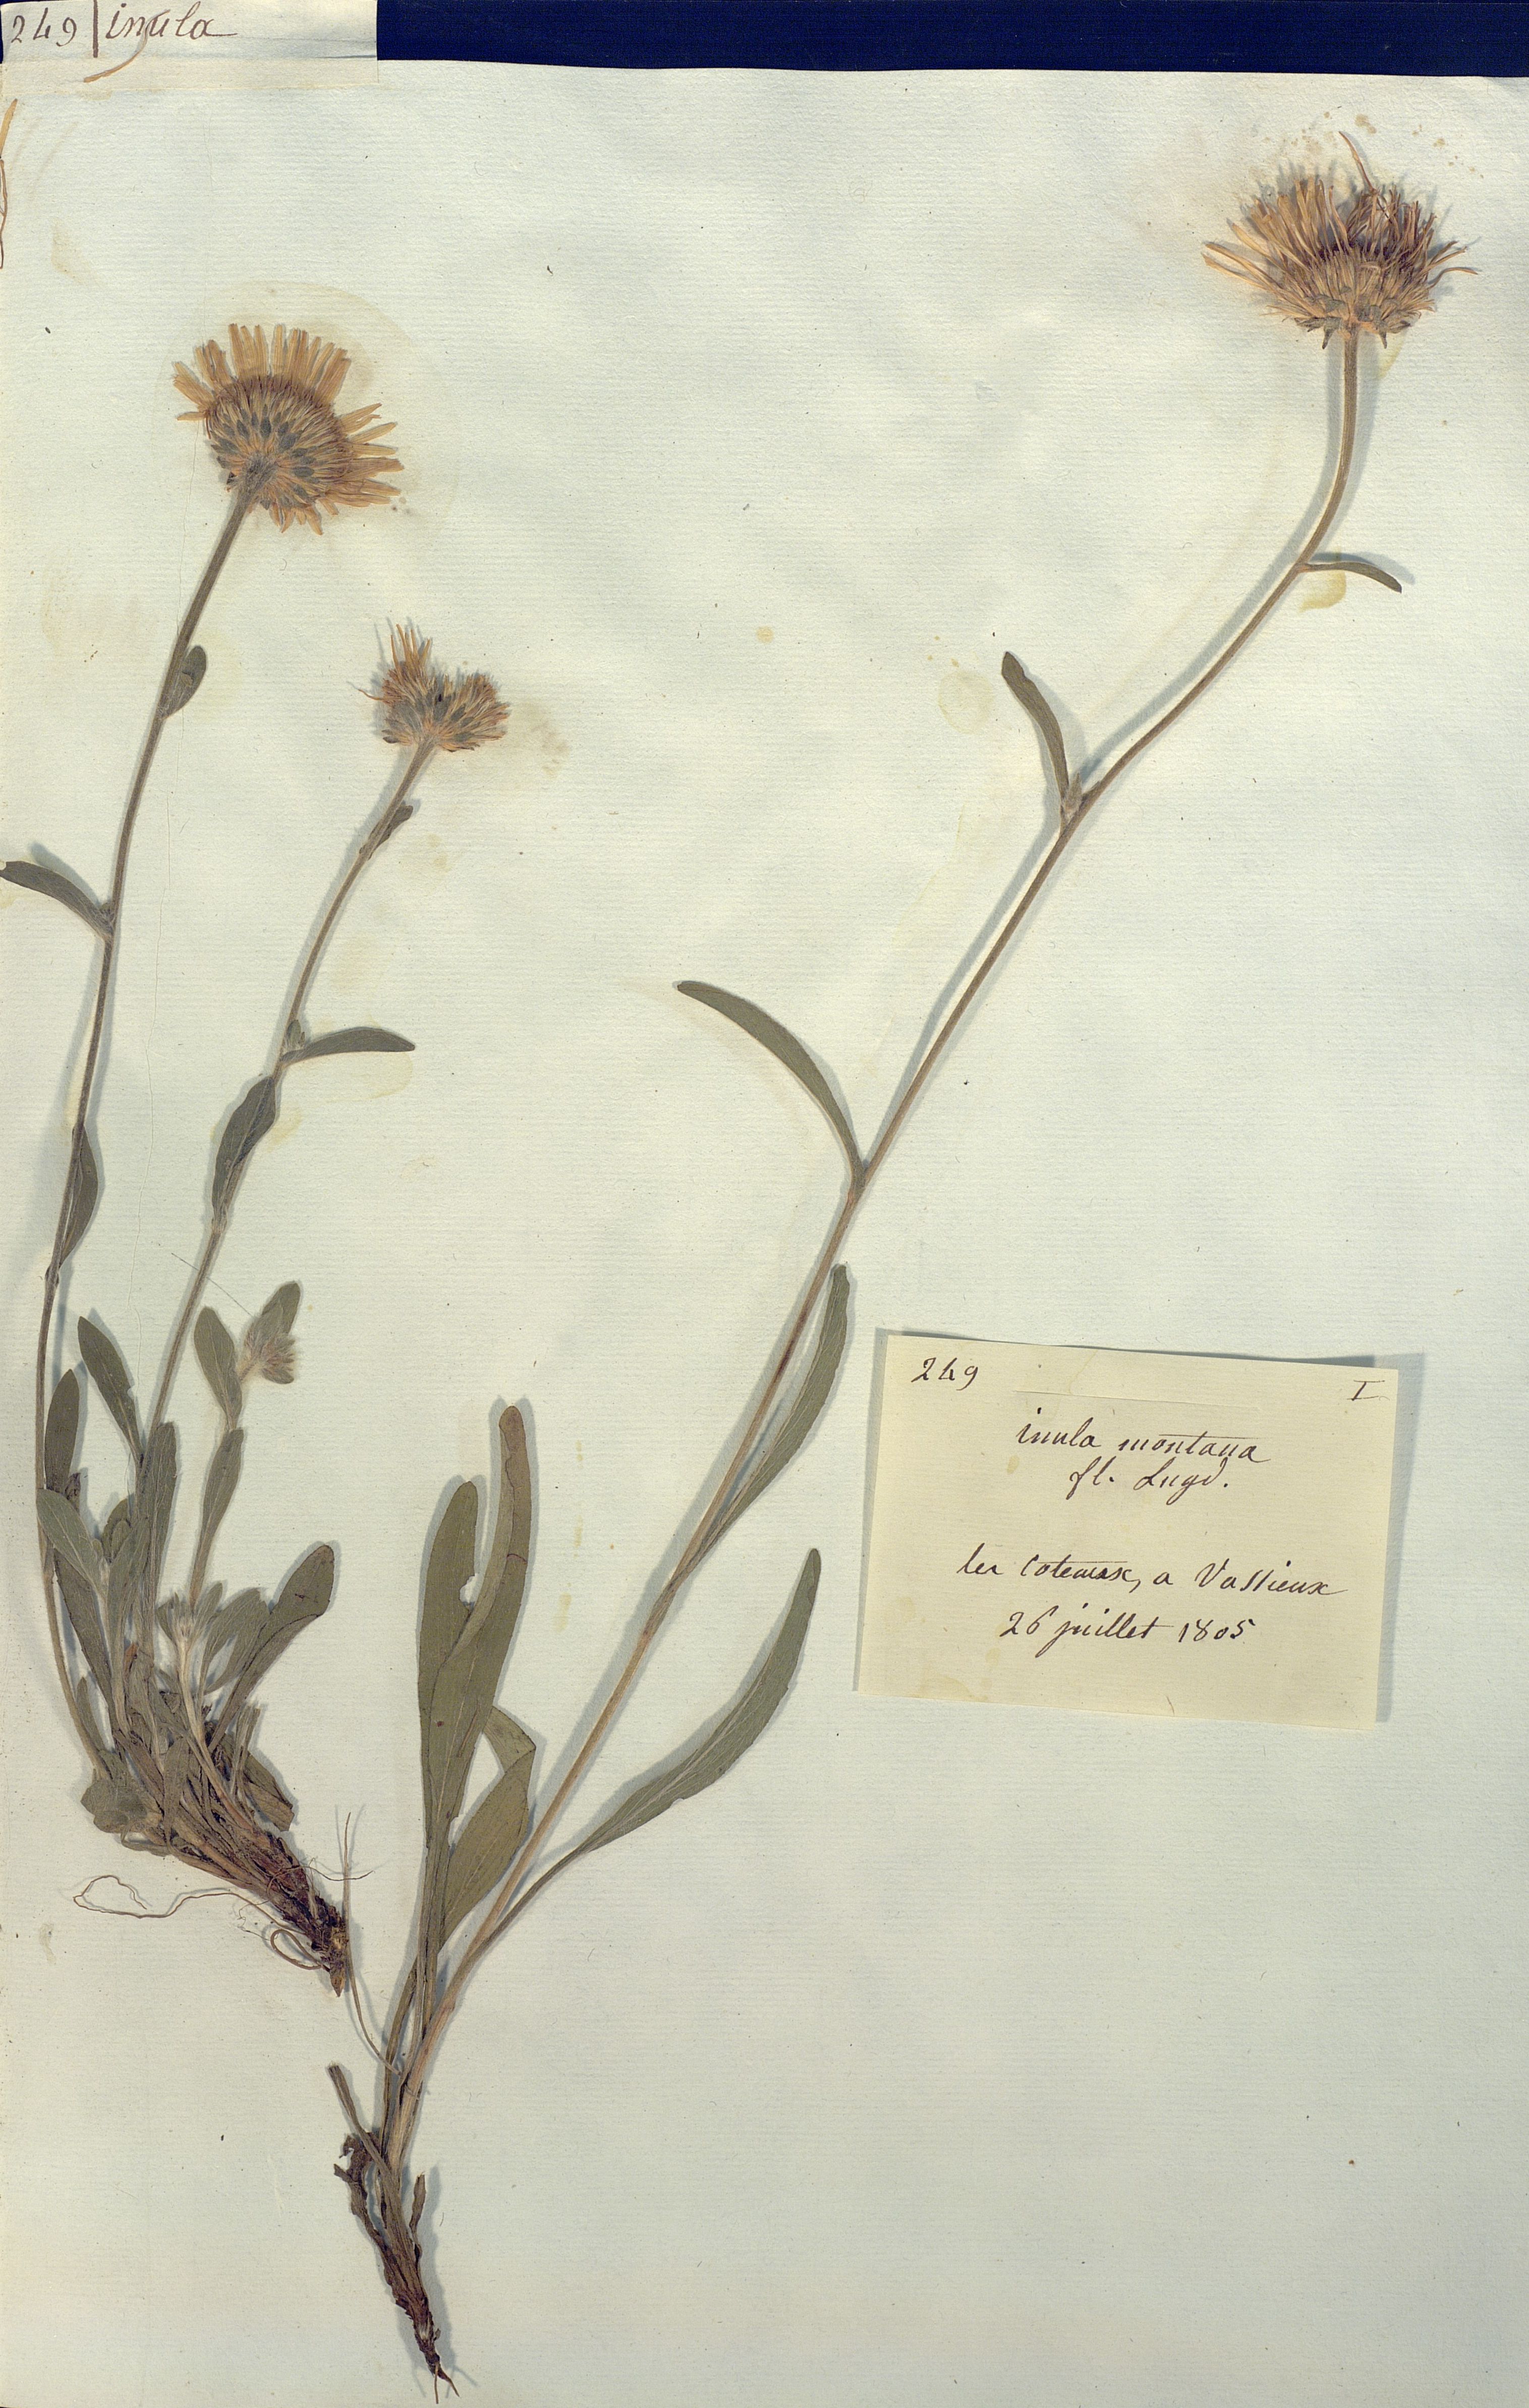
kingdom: Plantae
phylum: Tracheophyta
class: Magnoliopsida
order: Asterales
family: Asteraceae
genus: Inula
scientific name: Inula montana
